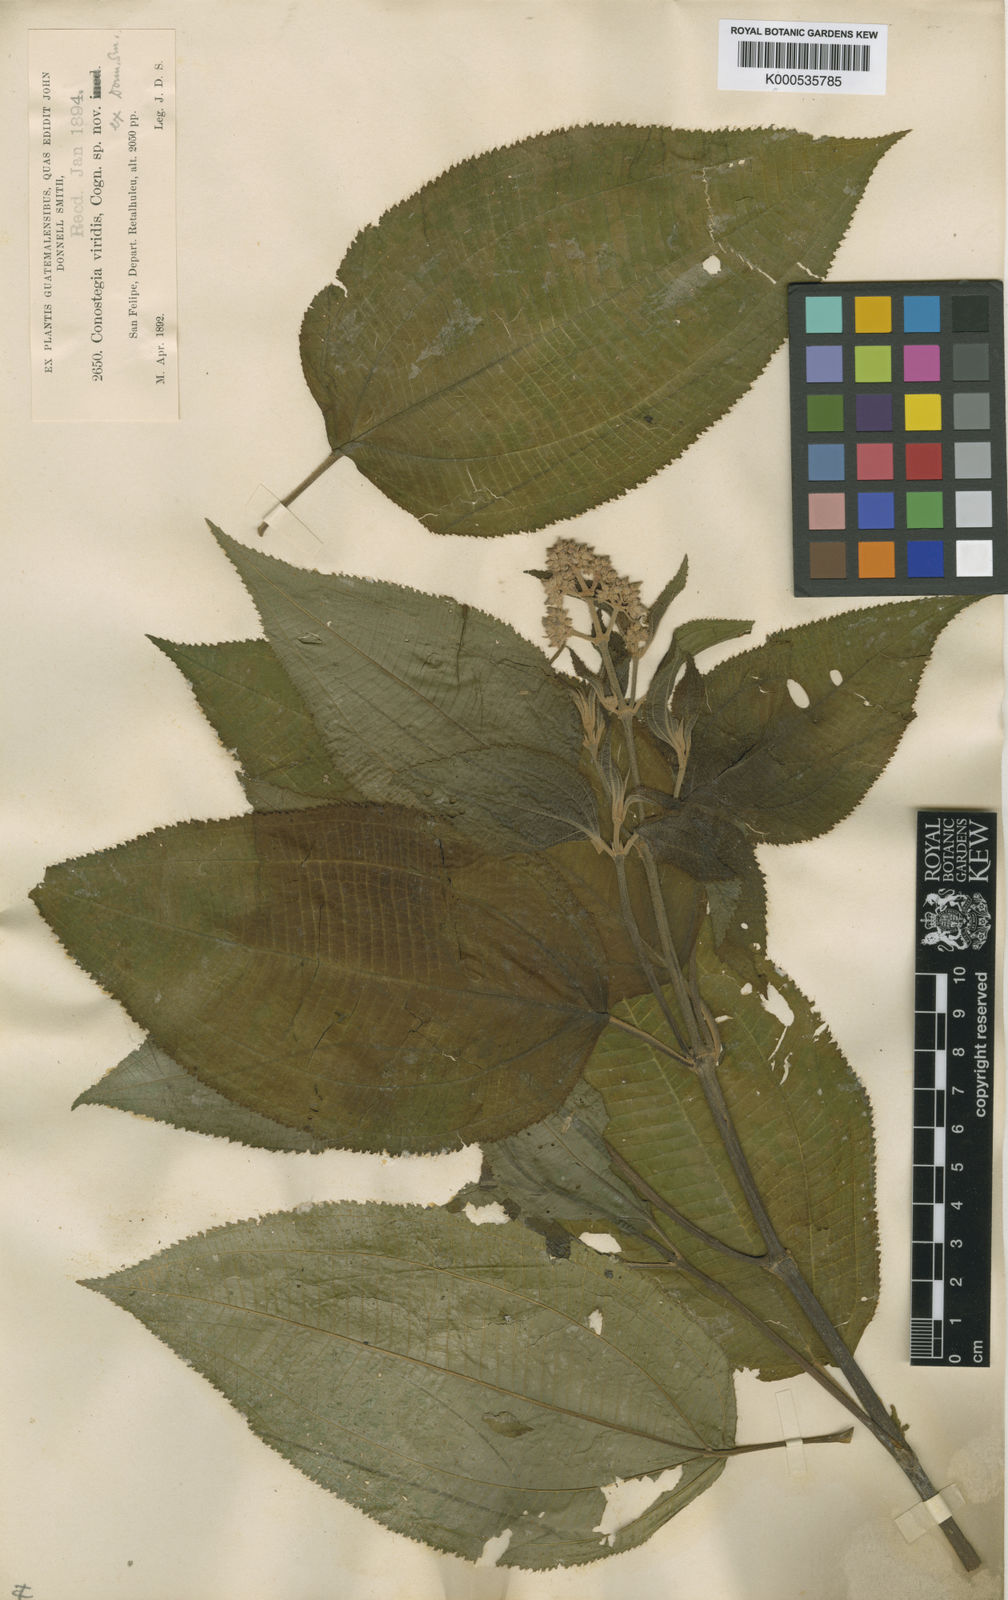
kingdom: Plantae
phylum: Tracheophyta
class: Magnoliopsida
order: Myrtales
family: Melastomataceae
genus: Miconia
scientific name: Miconia xalapensis
